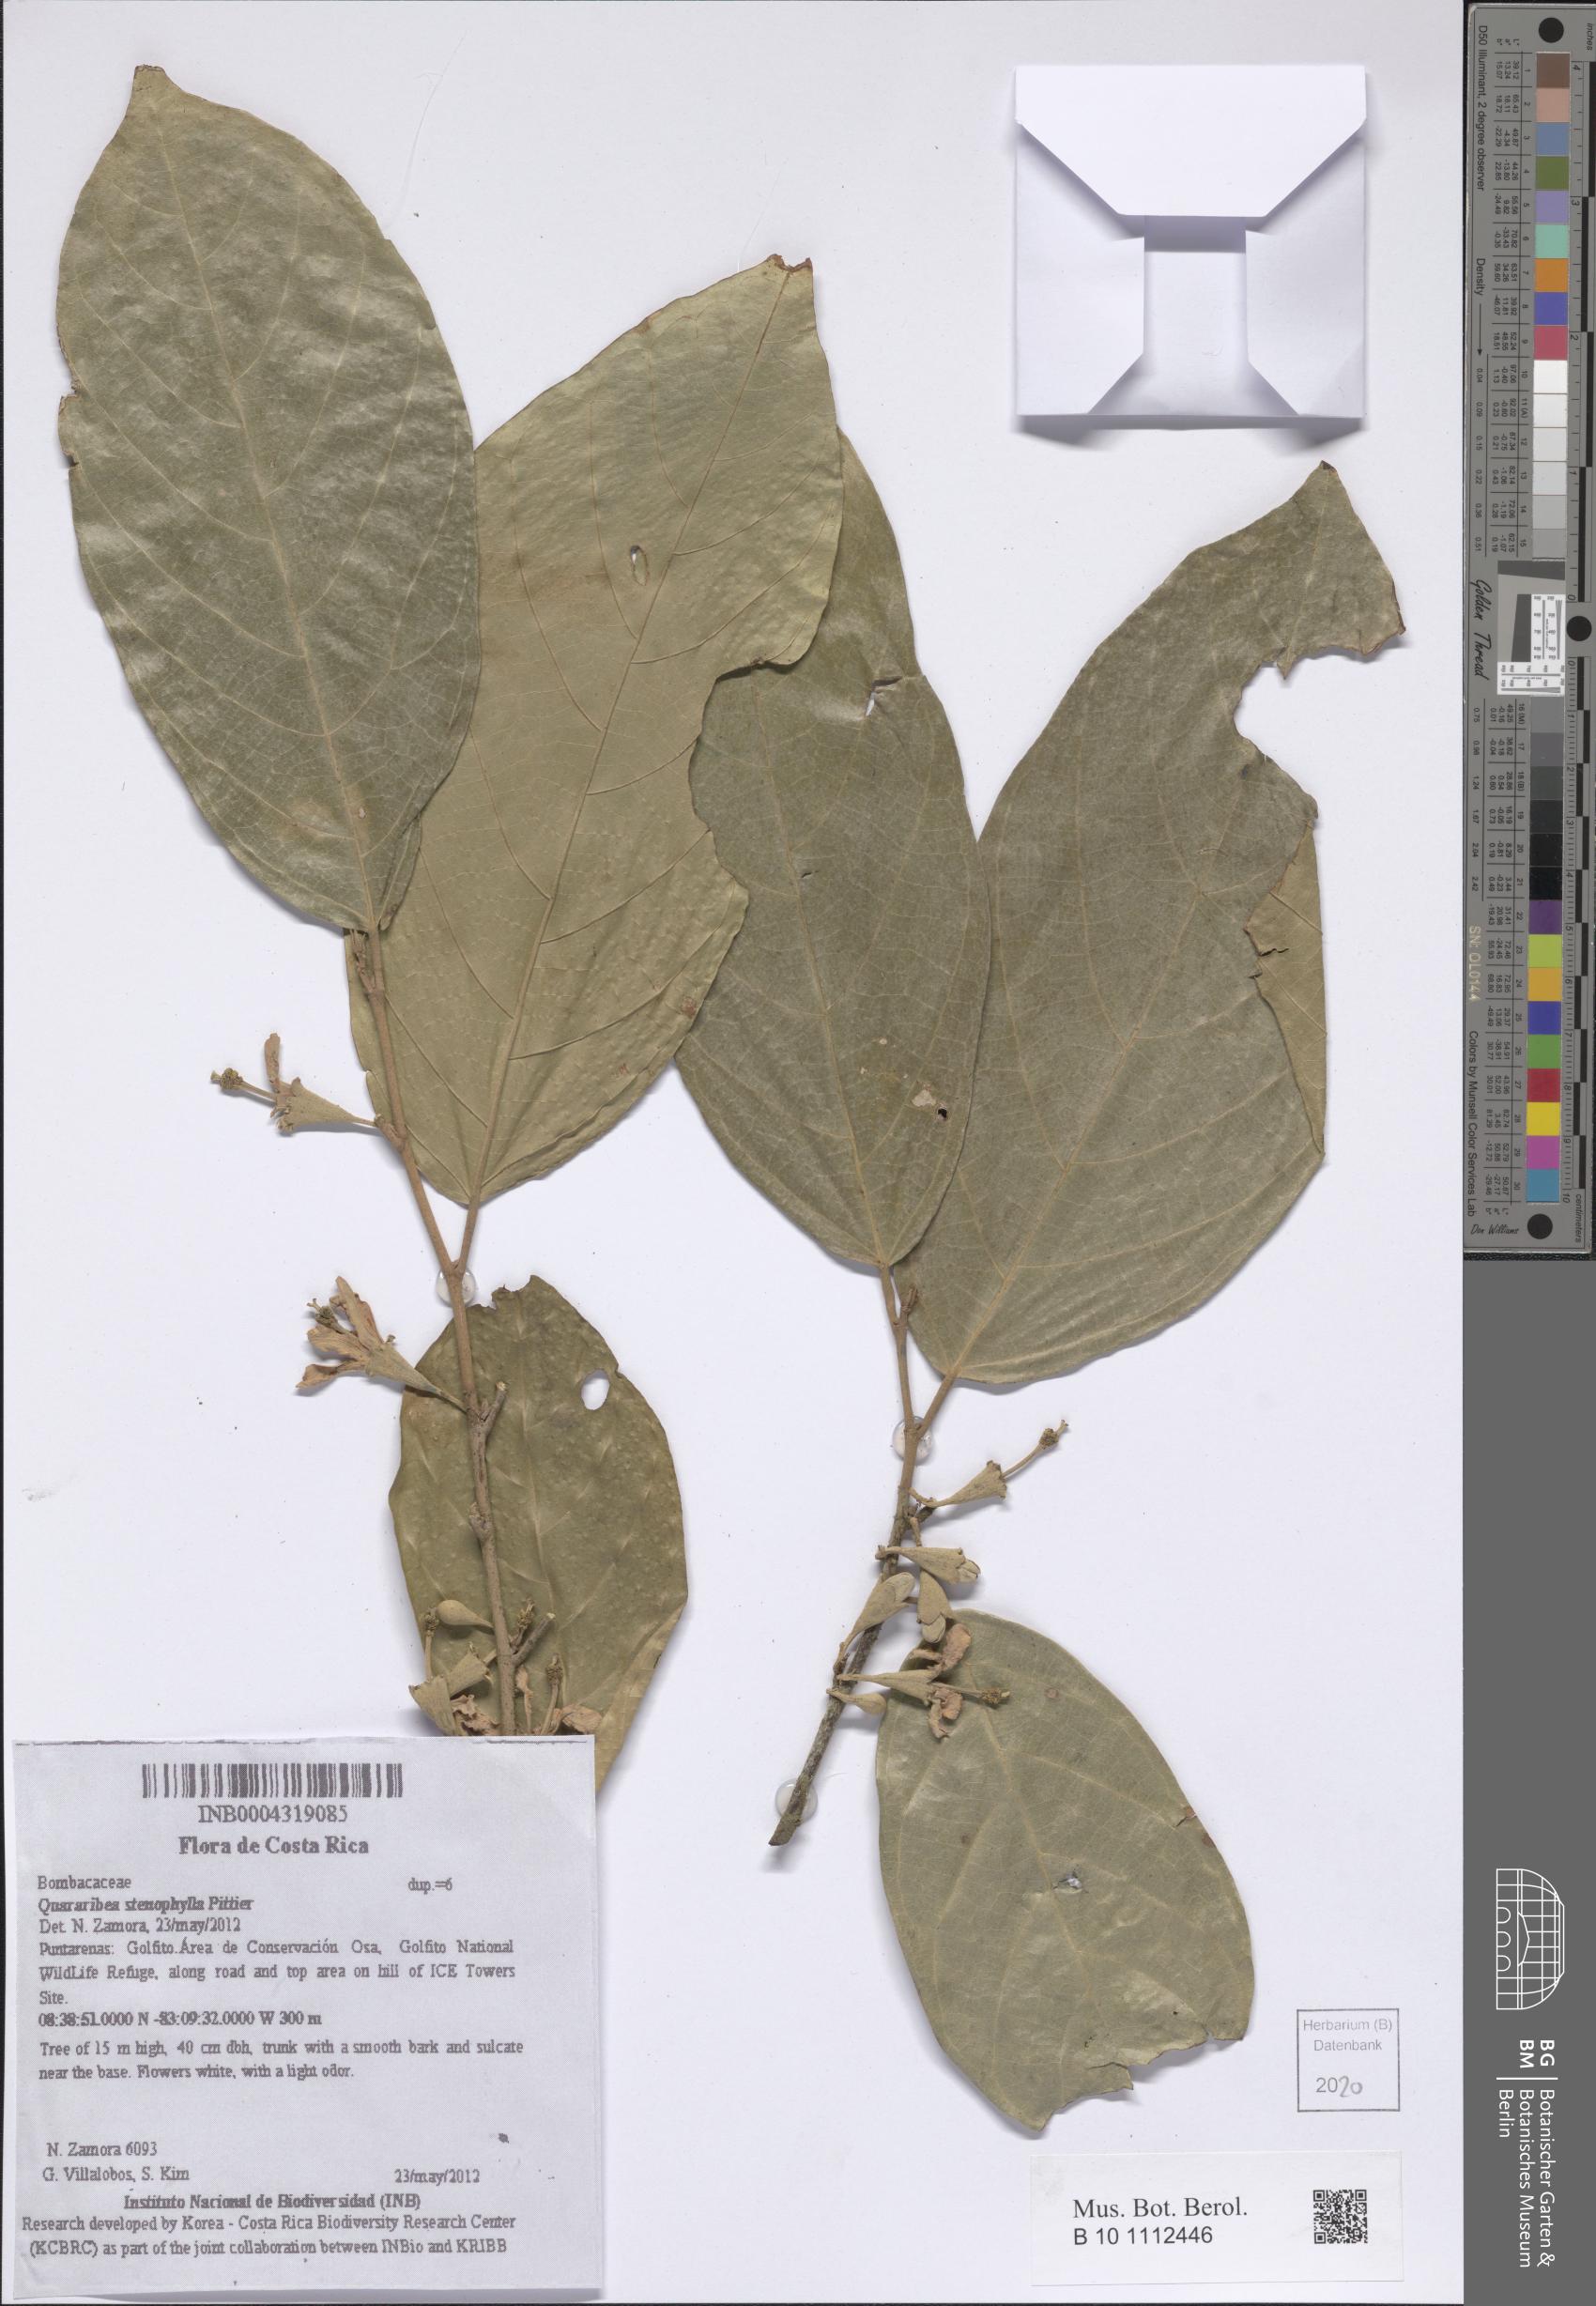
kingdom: Plantae
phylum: Tracheophyta
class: Magnoliopsida
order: Malvales
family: Malvaceae
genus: Quararibea
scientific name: Quararibea stenophylla
